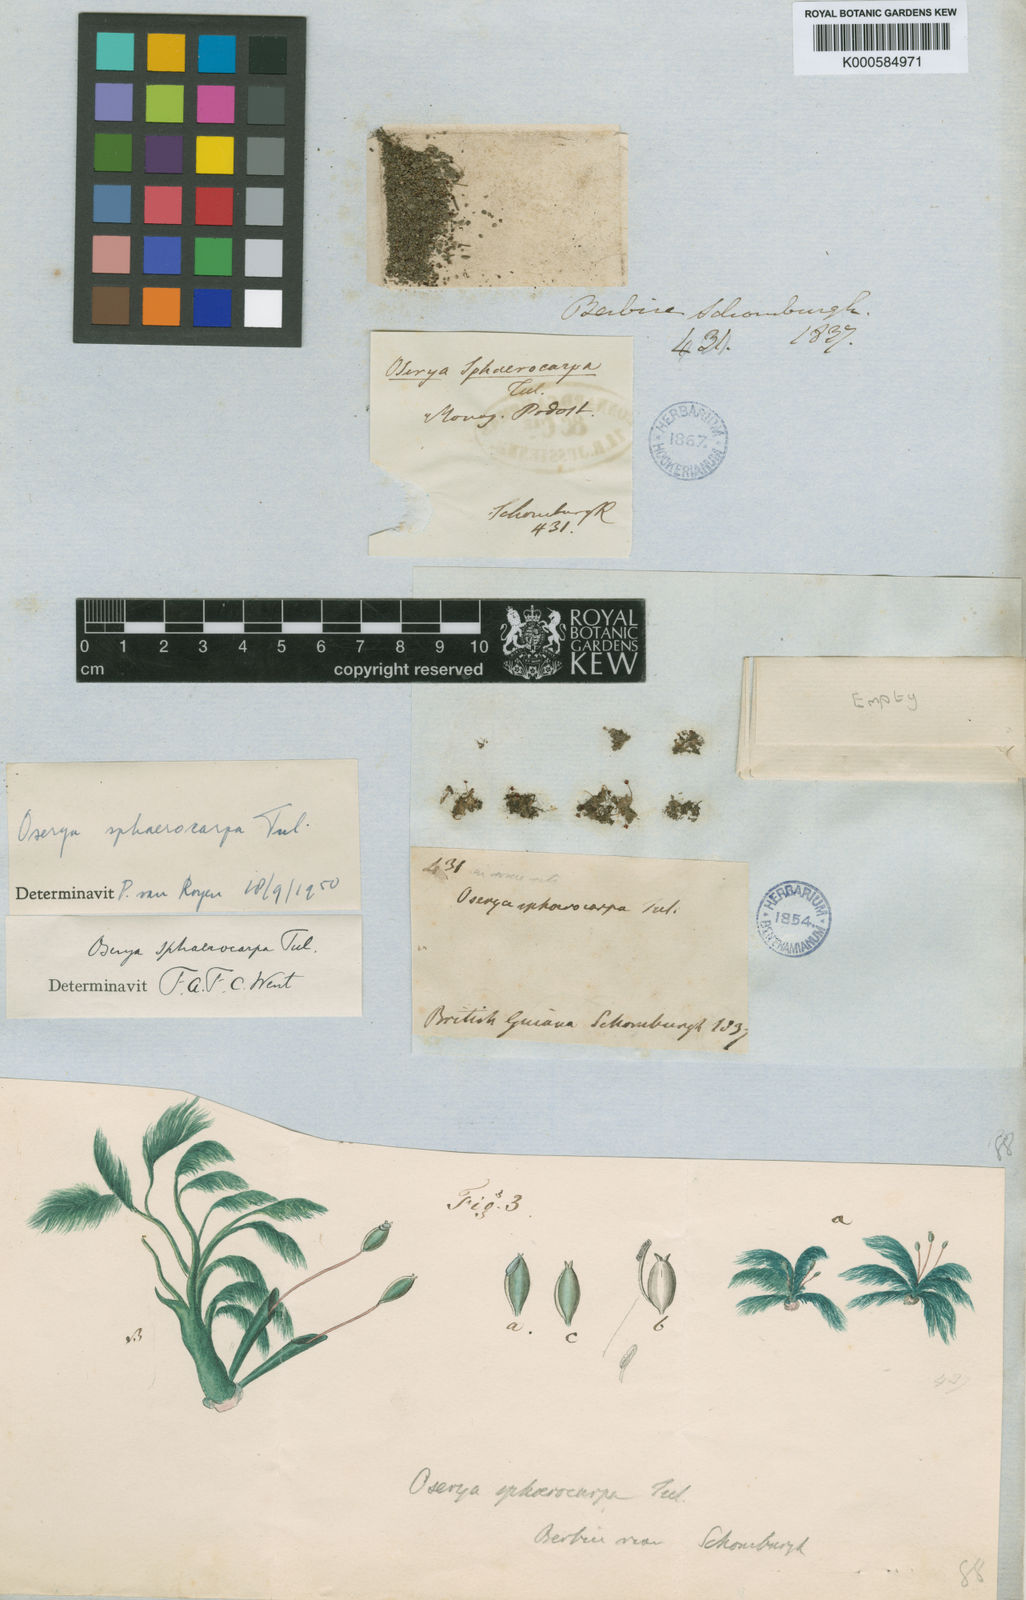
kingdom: Plantae
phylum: Tracheophyta
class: Magnoliopsida
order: Malpighiales
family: Podostemaceae
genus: Oserya
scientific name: Oserya sphaerocarpa
